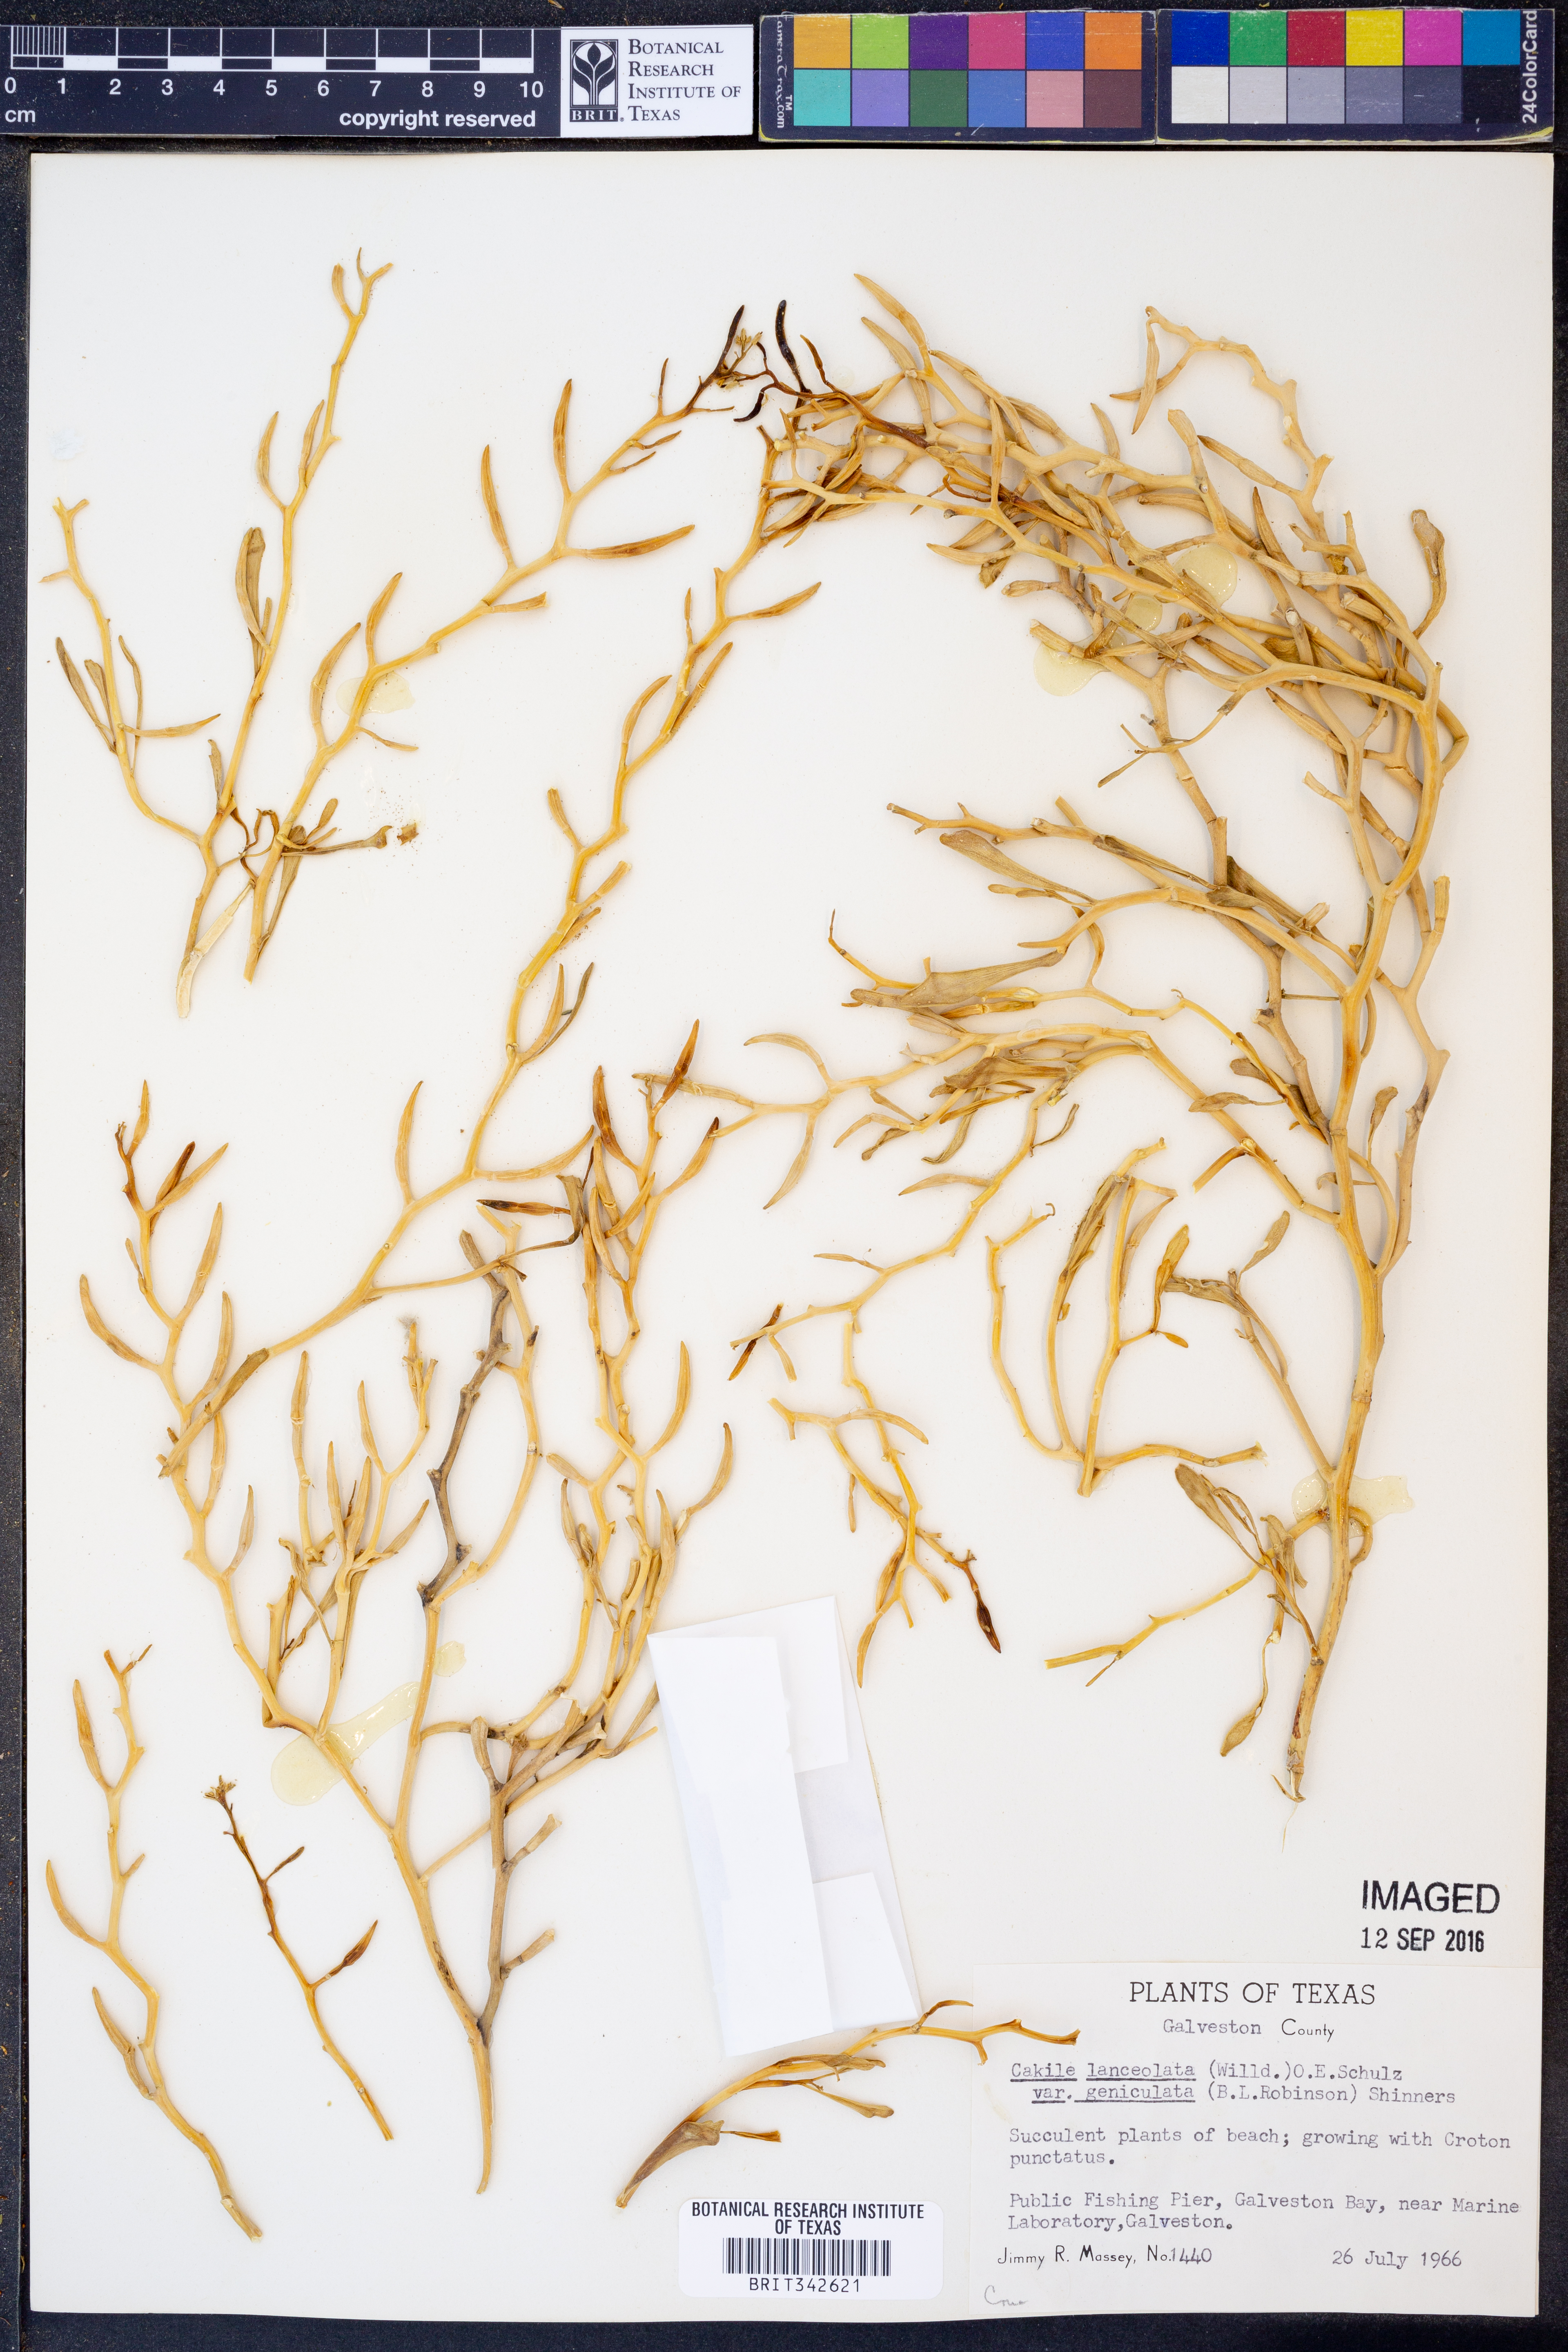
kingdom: Plantae
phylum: Tracheophyta
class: Magnoliopsida
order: Brassicales
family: Brassicaceae
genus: Cakile
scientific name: Cakile geniculata
